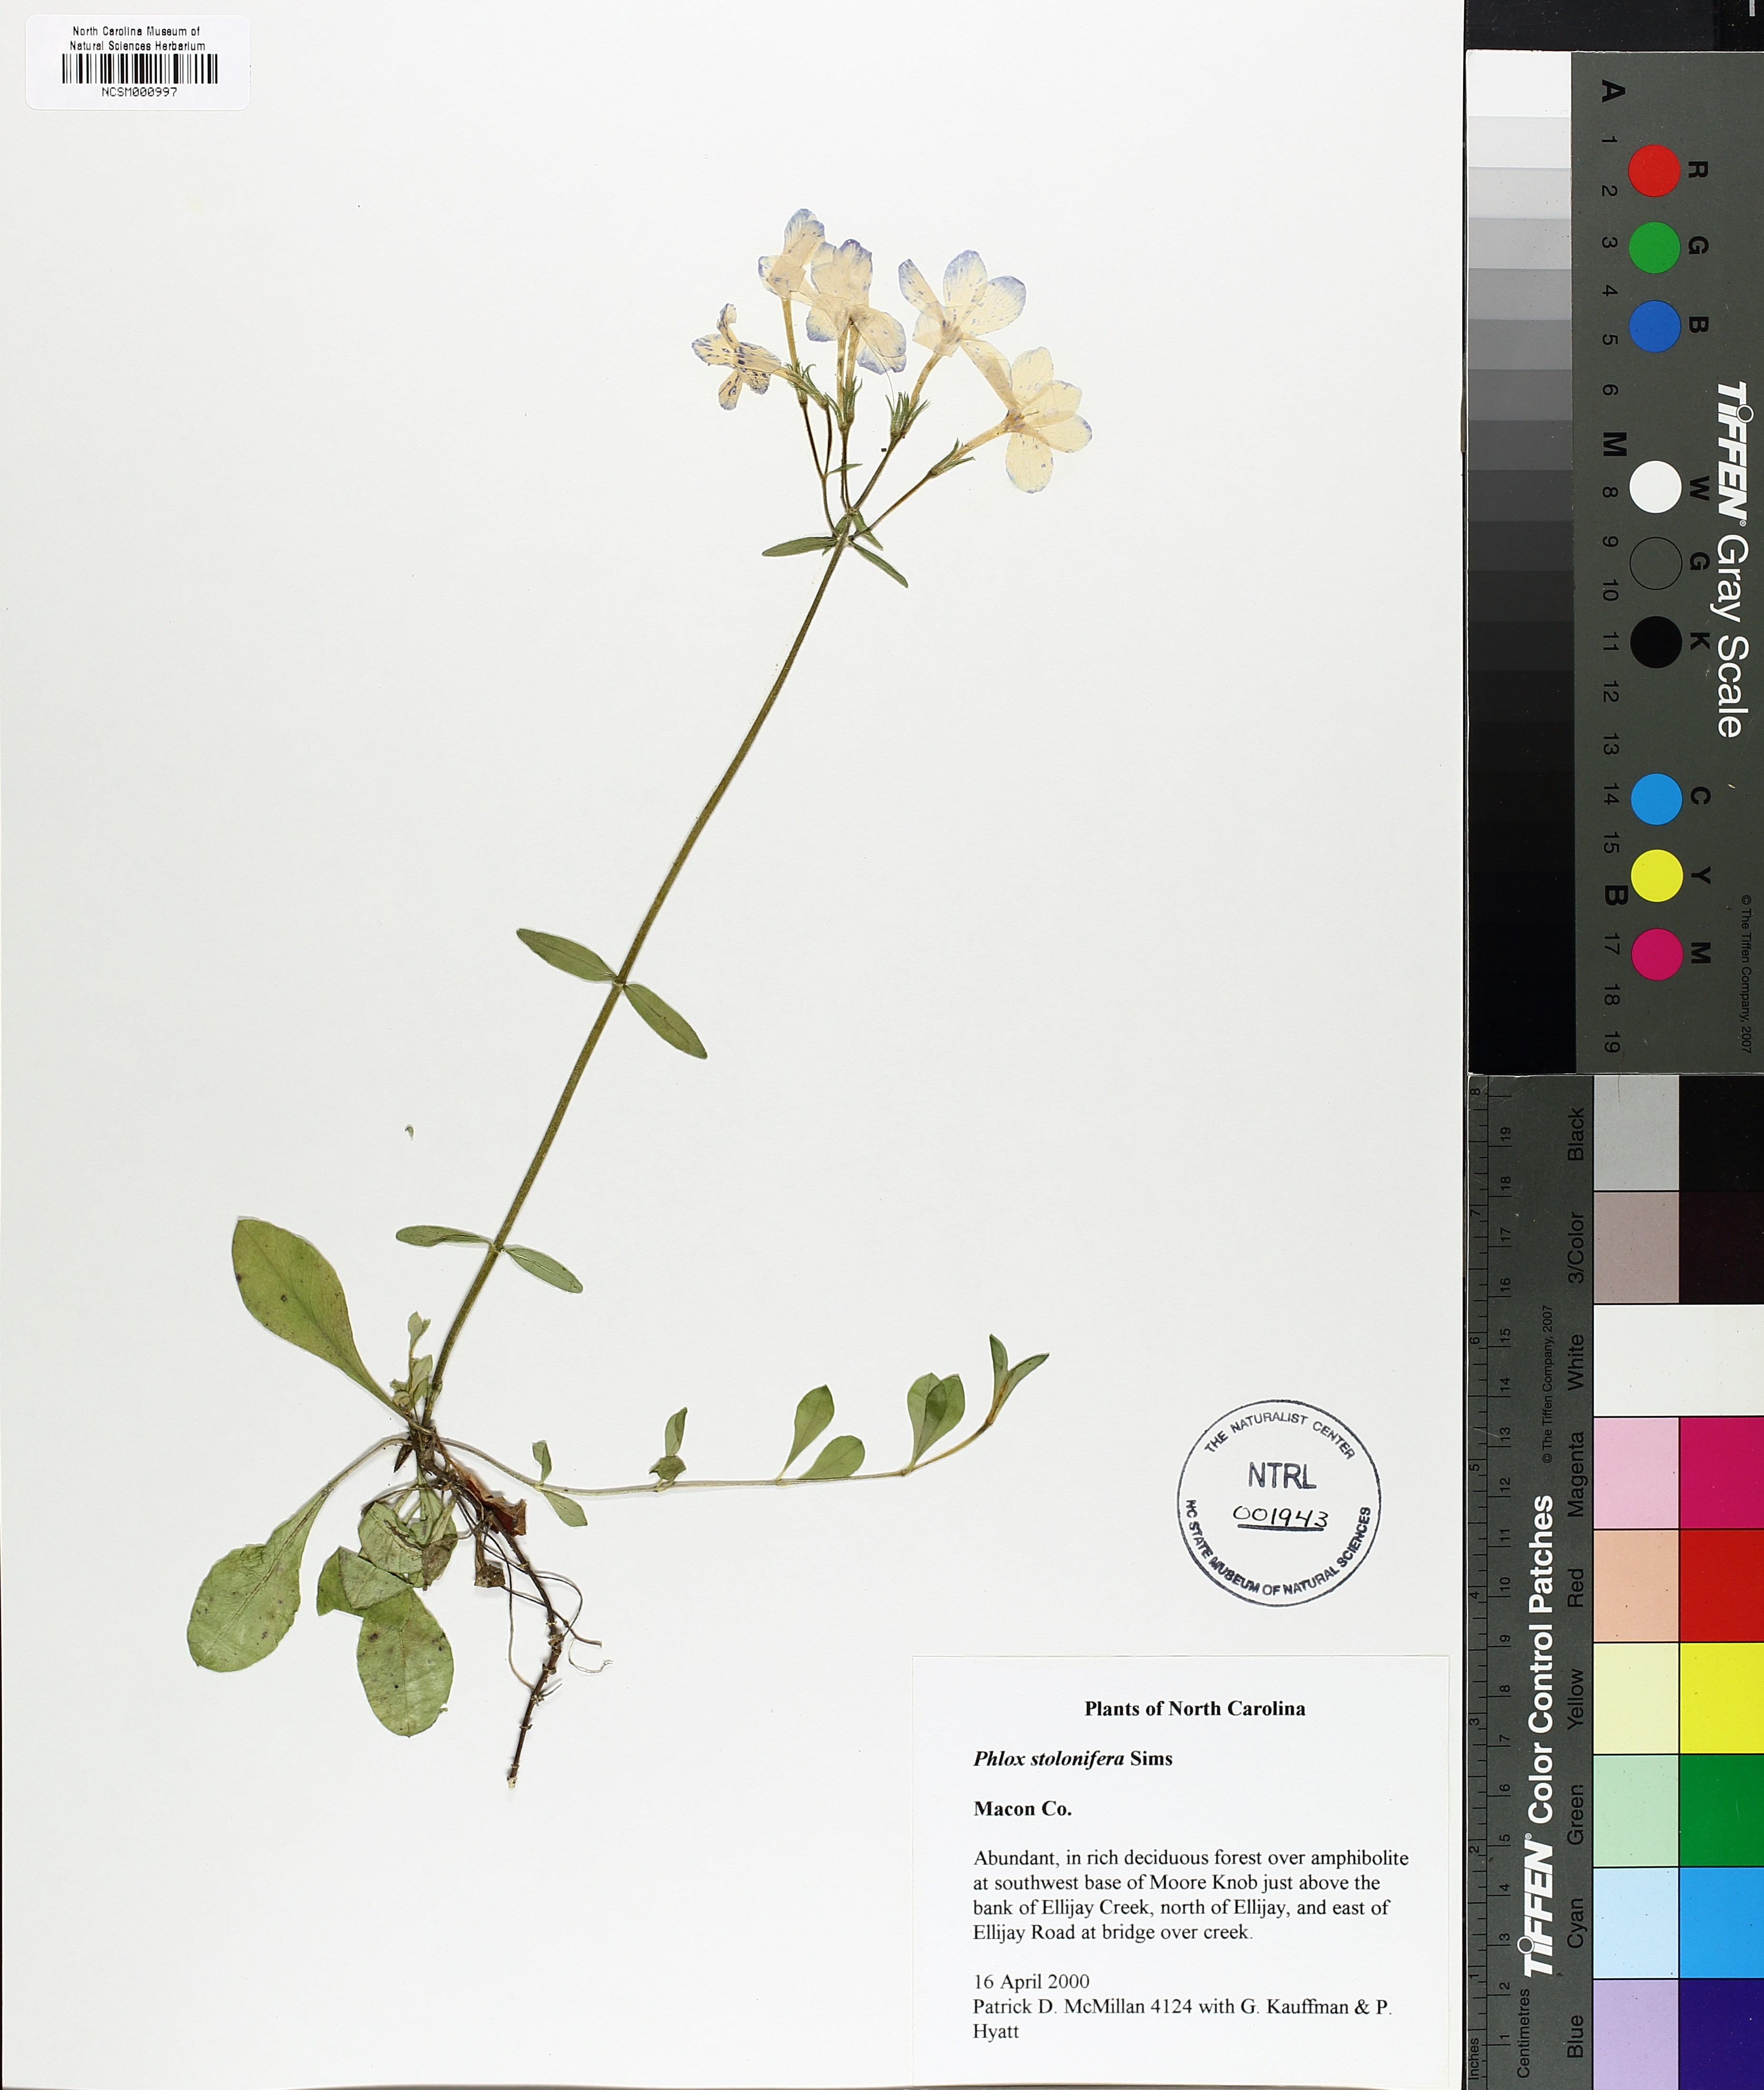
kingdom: Plantae
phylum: Tracheophyta
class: Magnoliopsida
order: Ericales
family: Polemoniaceae
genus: Phlox
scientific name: Phlox stolonifera
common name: Creeping phlox
